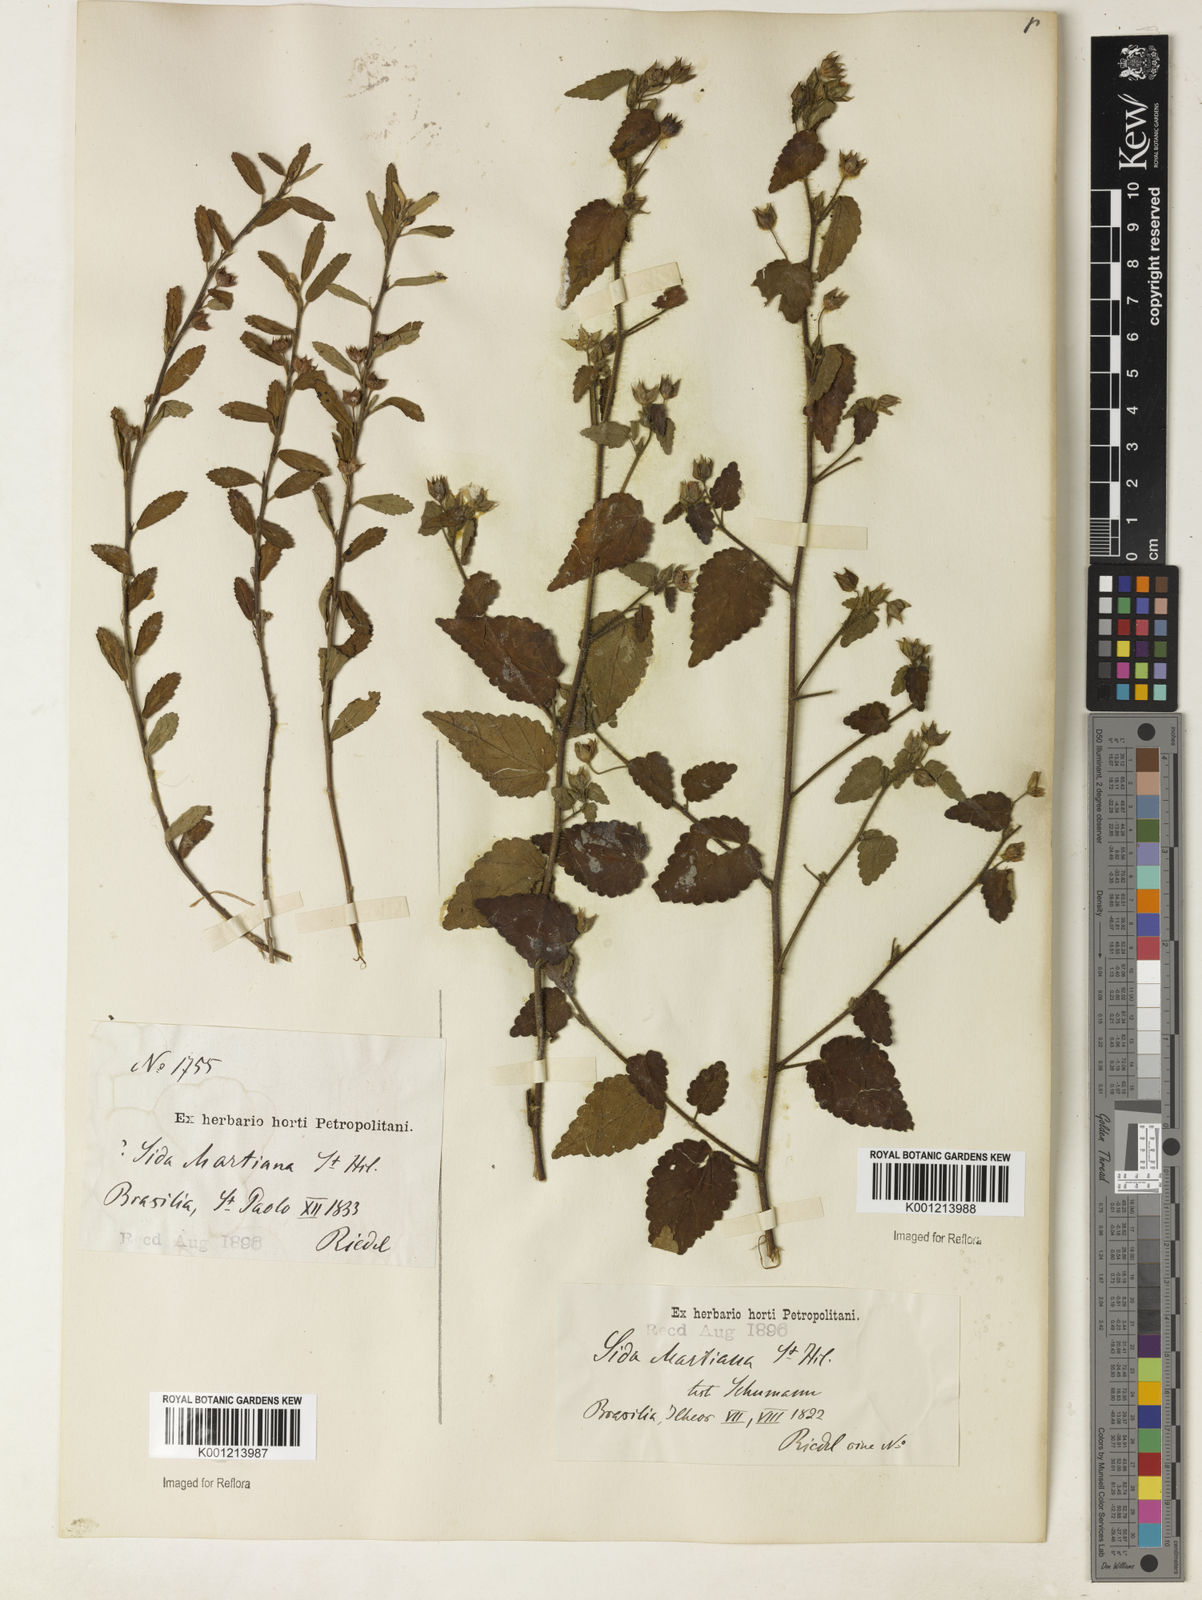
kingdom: Plantae
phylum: Tracheophyta
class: Magnoliopsida
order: Malvales
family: Malvaceae
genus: Sida
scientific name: Sida aurantiaca
